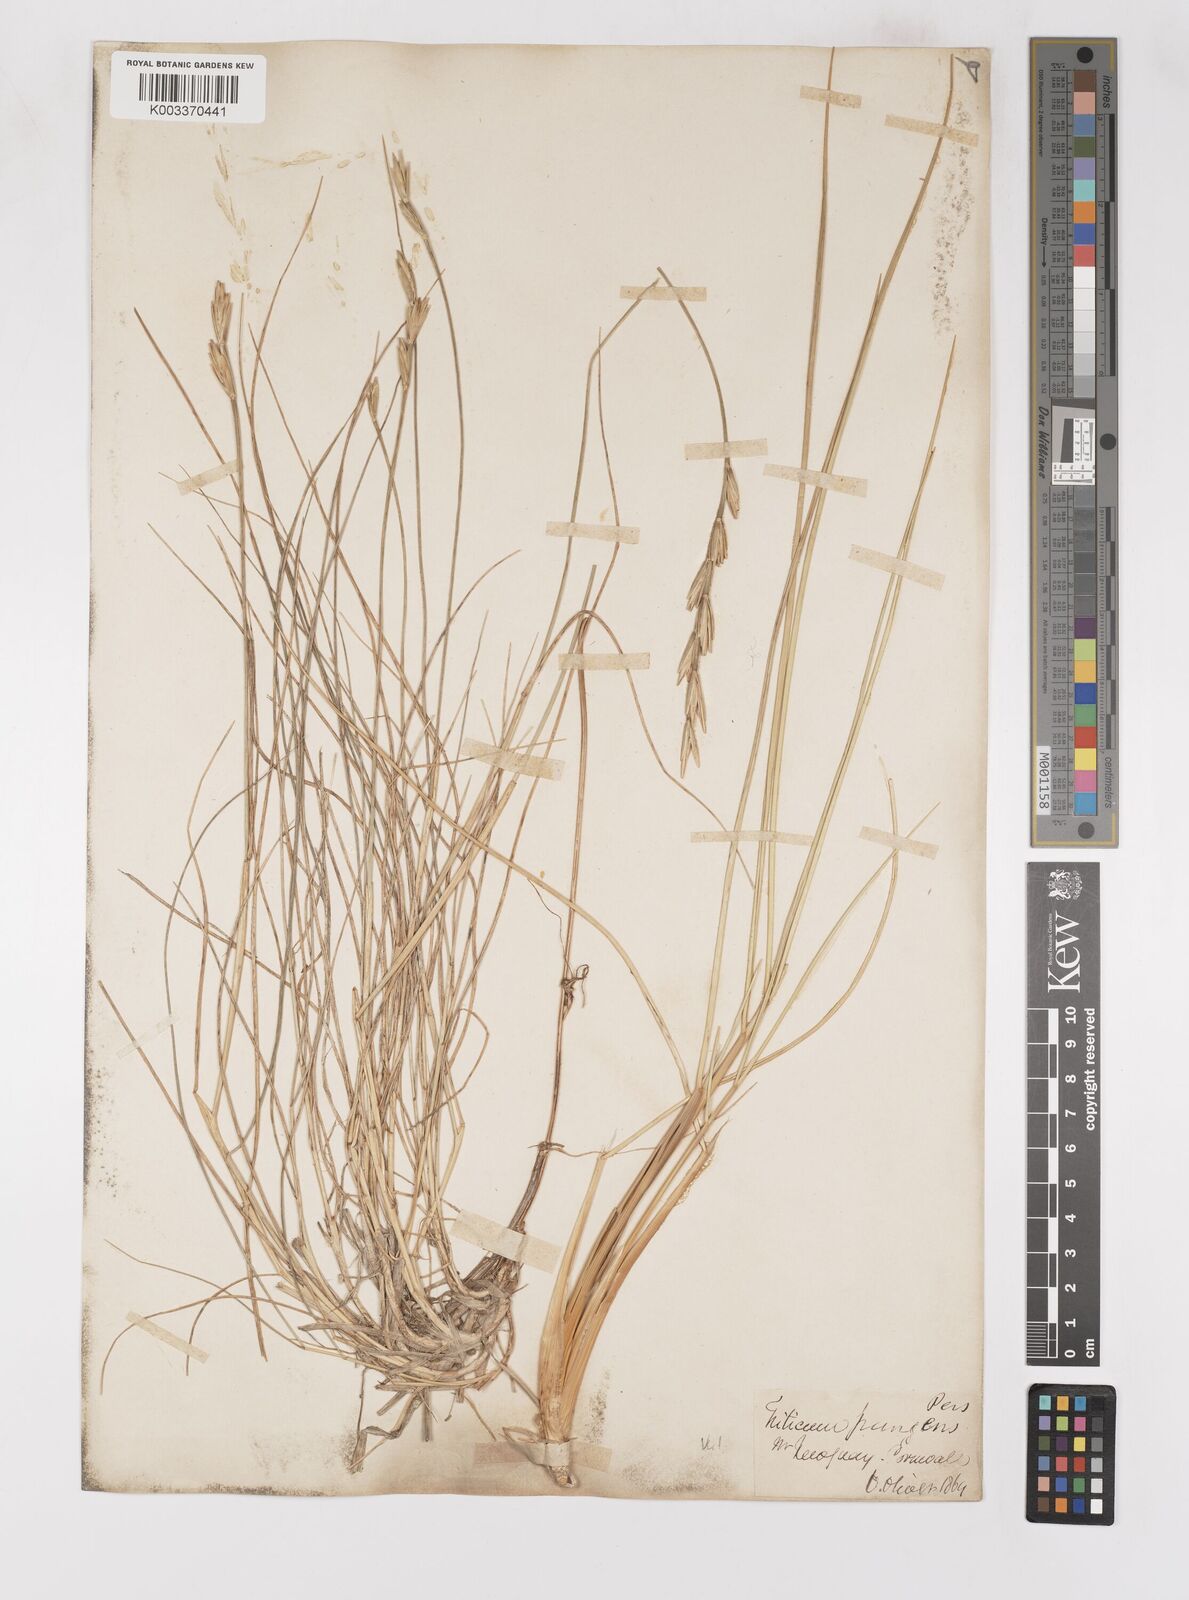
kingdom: Plantae
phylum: Tracheophyta
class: Liliopsida
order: Poales
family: Poaceae
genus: Thinoelymus
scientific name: Thinoelymus obtusiusculus
